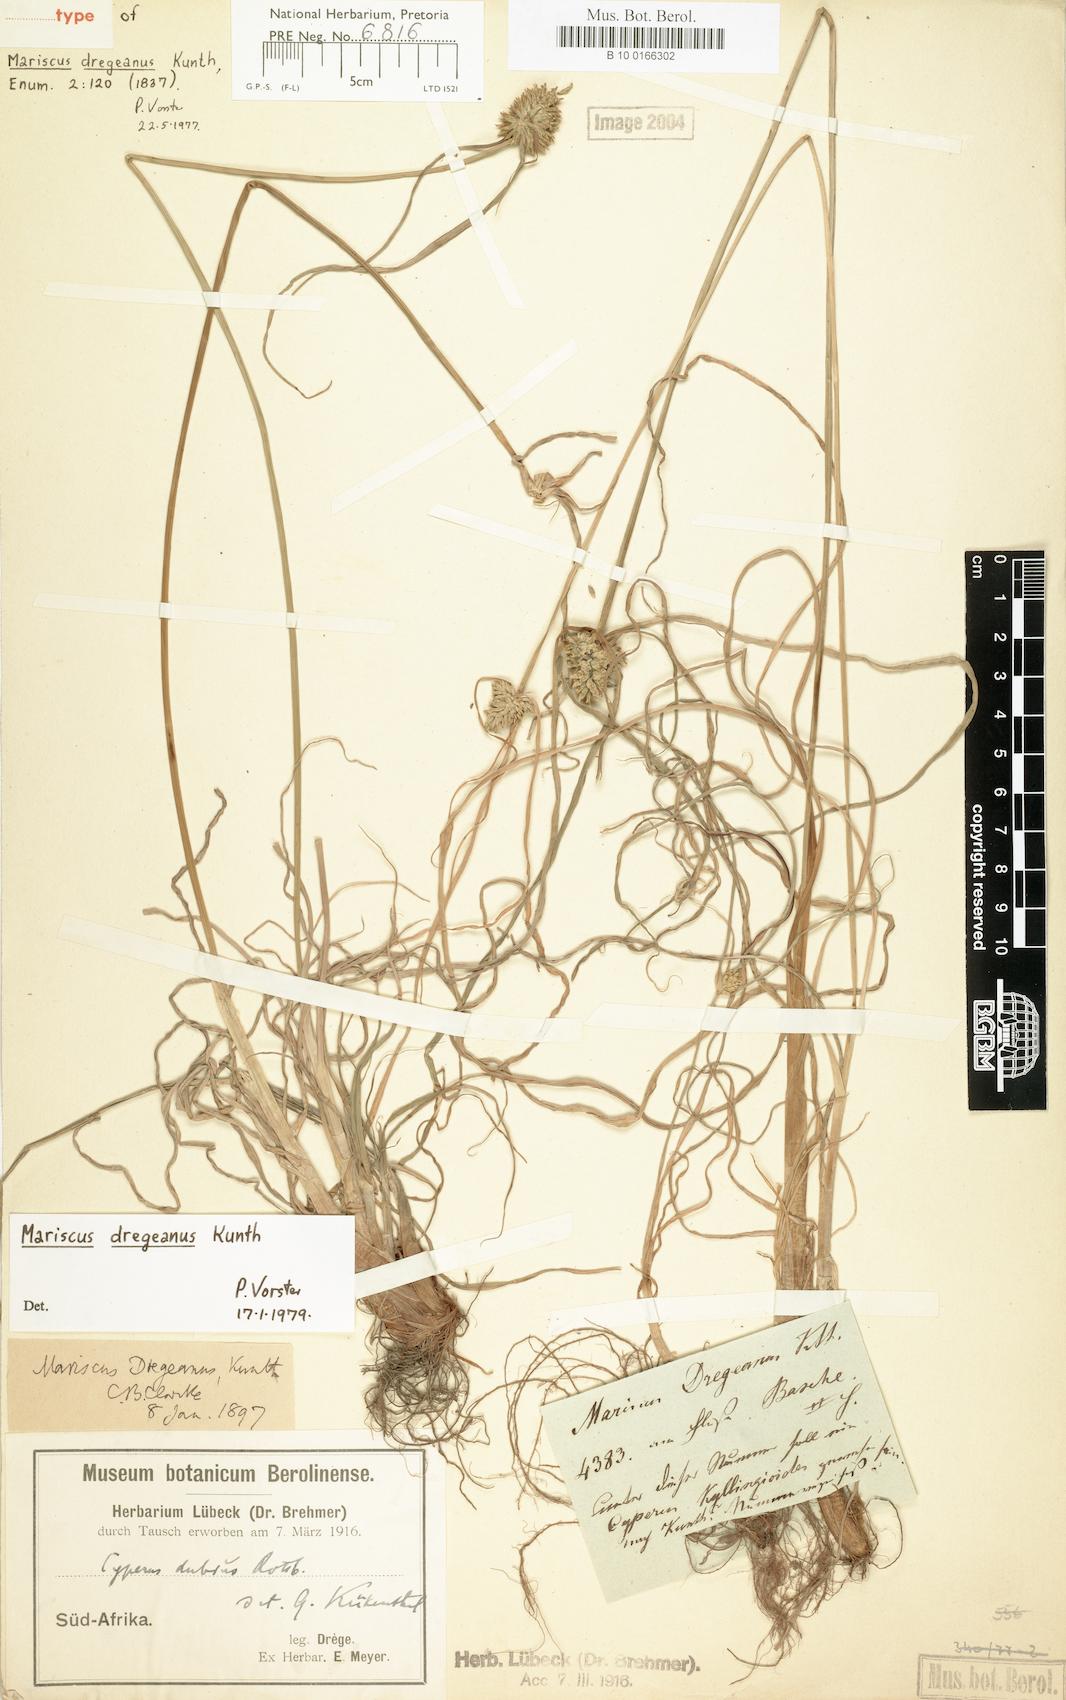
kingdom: Plantae
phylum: Tracheophyta
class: Liliopsida
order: Poales
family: Cyperaceae
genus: Cyperus
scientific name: Cyperus dregeanus
